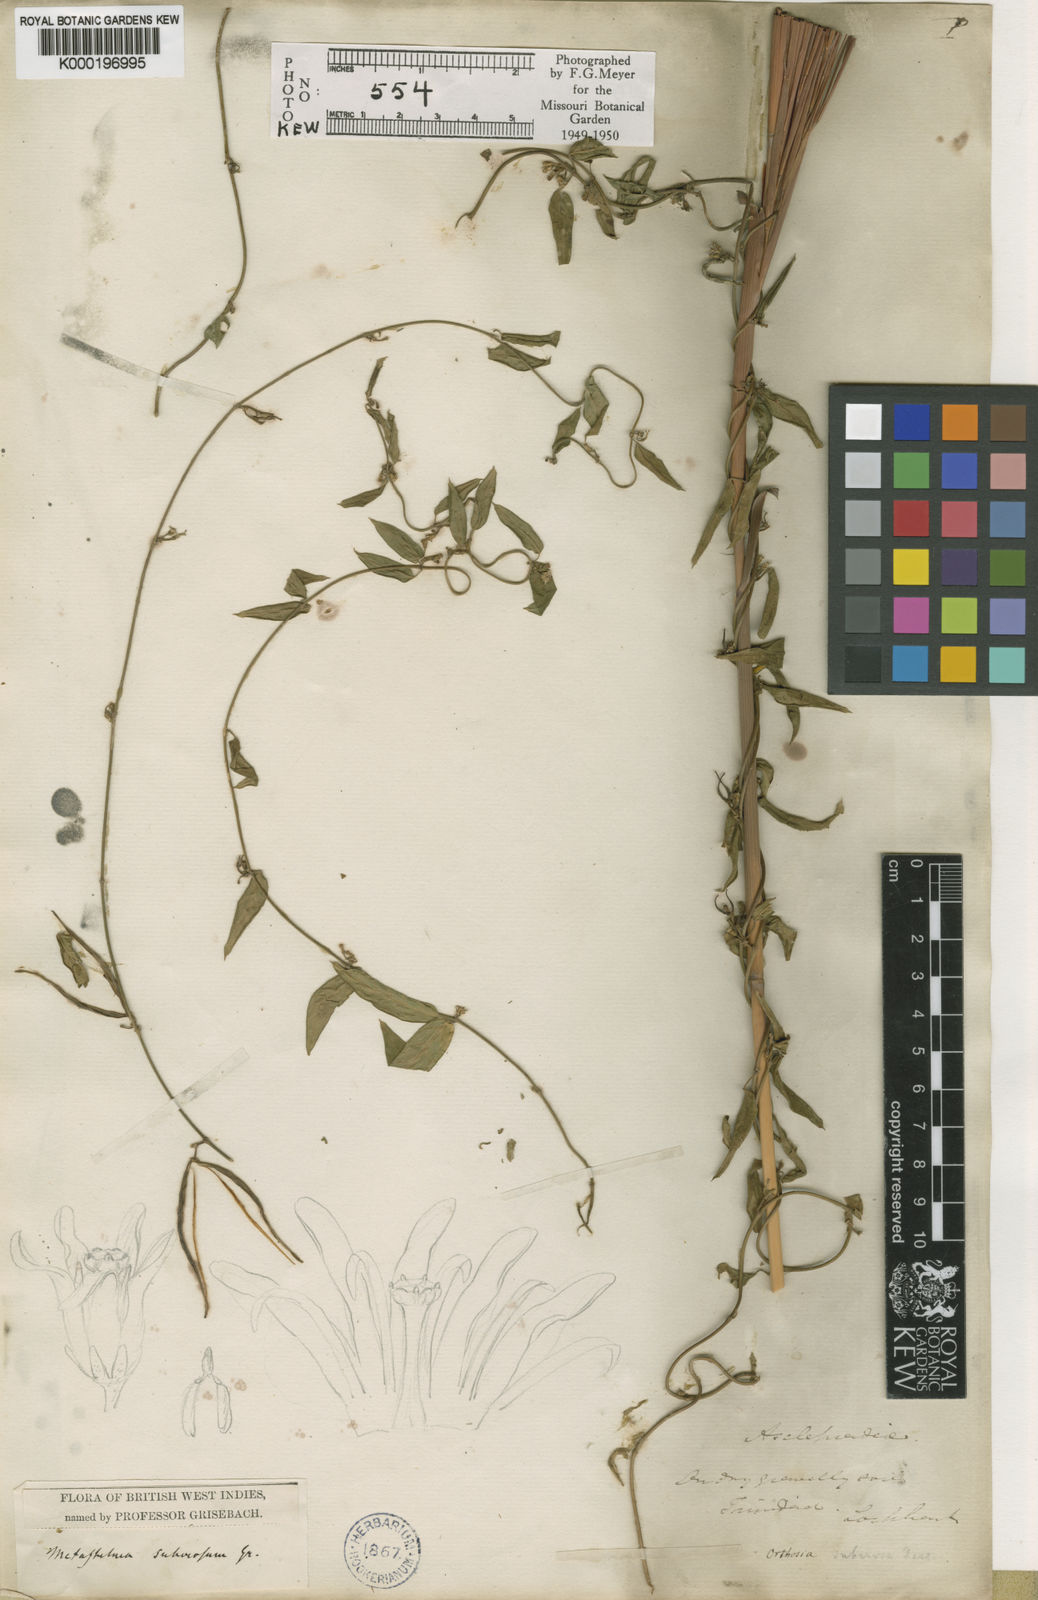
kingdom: Plantae
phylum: Tracheophyta
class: Magnoliopsida
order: Gentianales
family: Apocynaceae
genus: Metastelma
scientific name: Metastelma parviflorum
